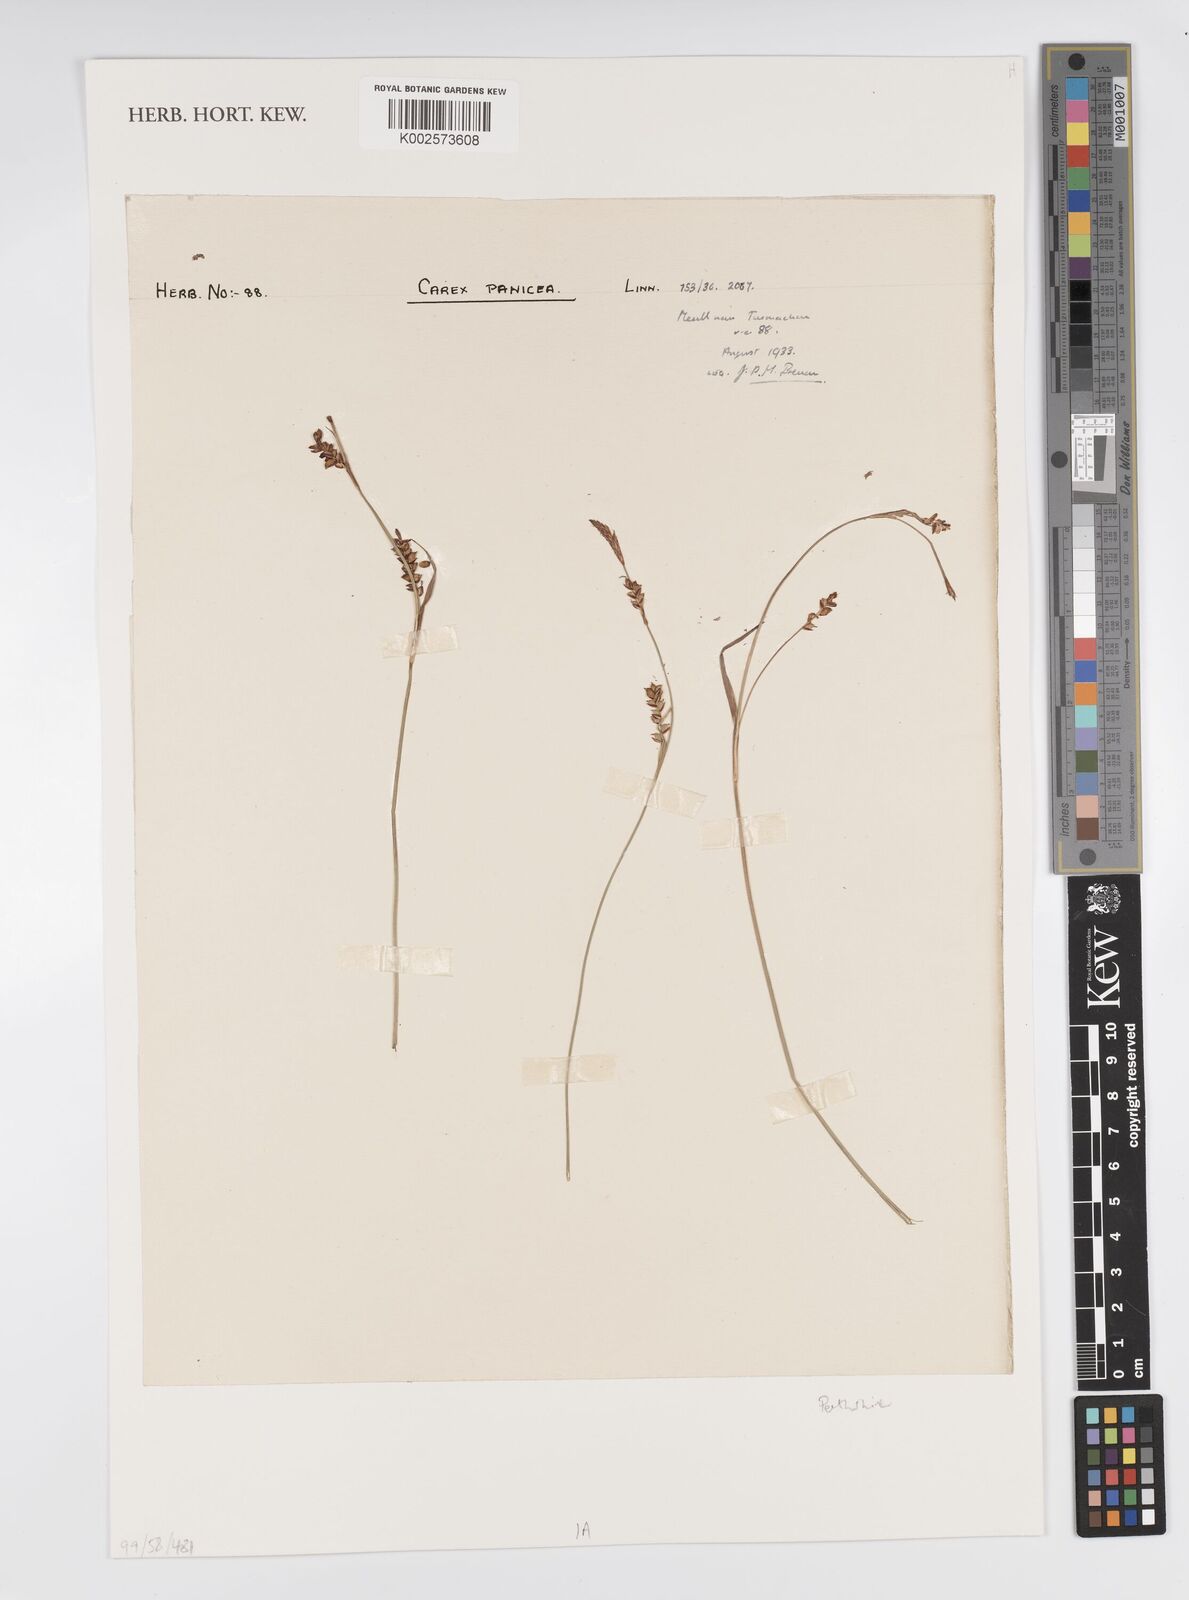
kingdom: Plantae
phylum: Tracheophyta
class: Liliopsida
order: Poales
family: Cyperaceae
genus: Carex
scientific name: Carex panicea
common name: Carnation sedge
